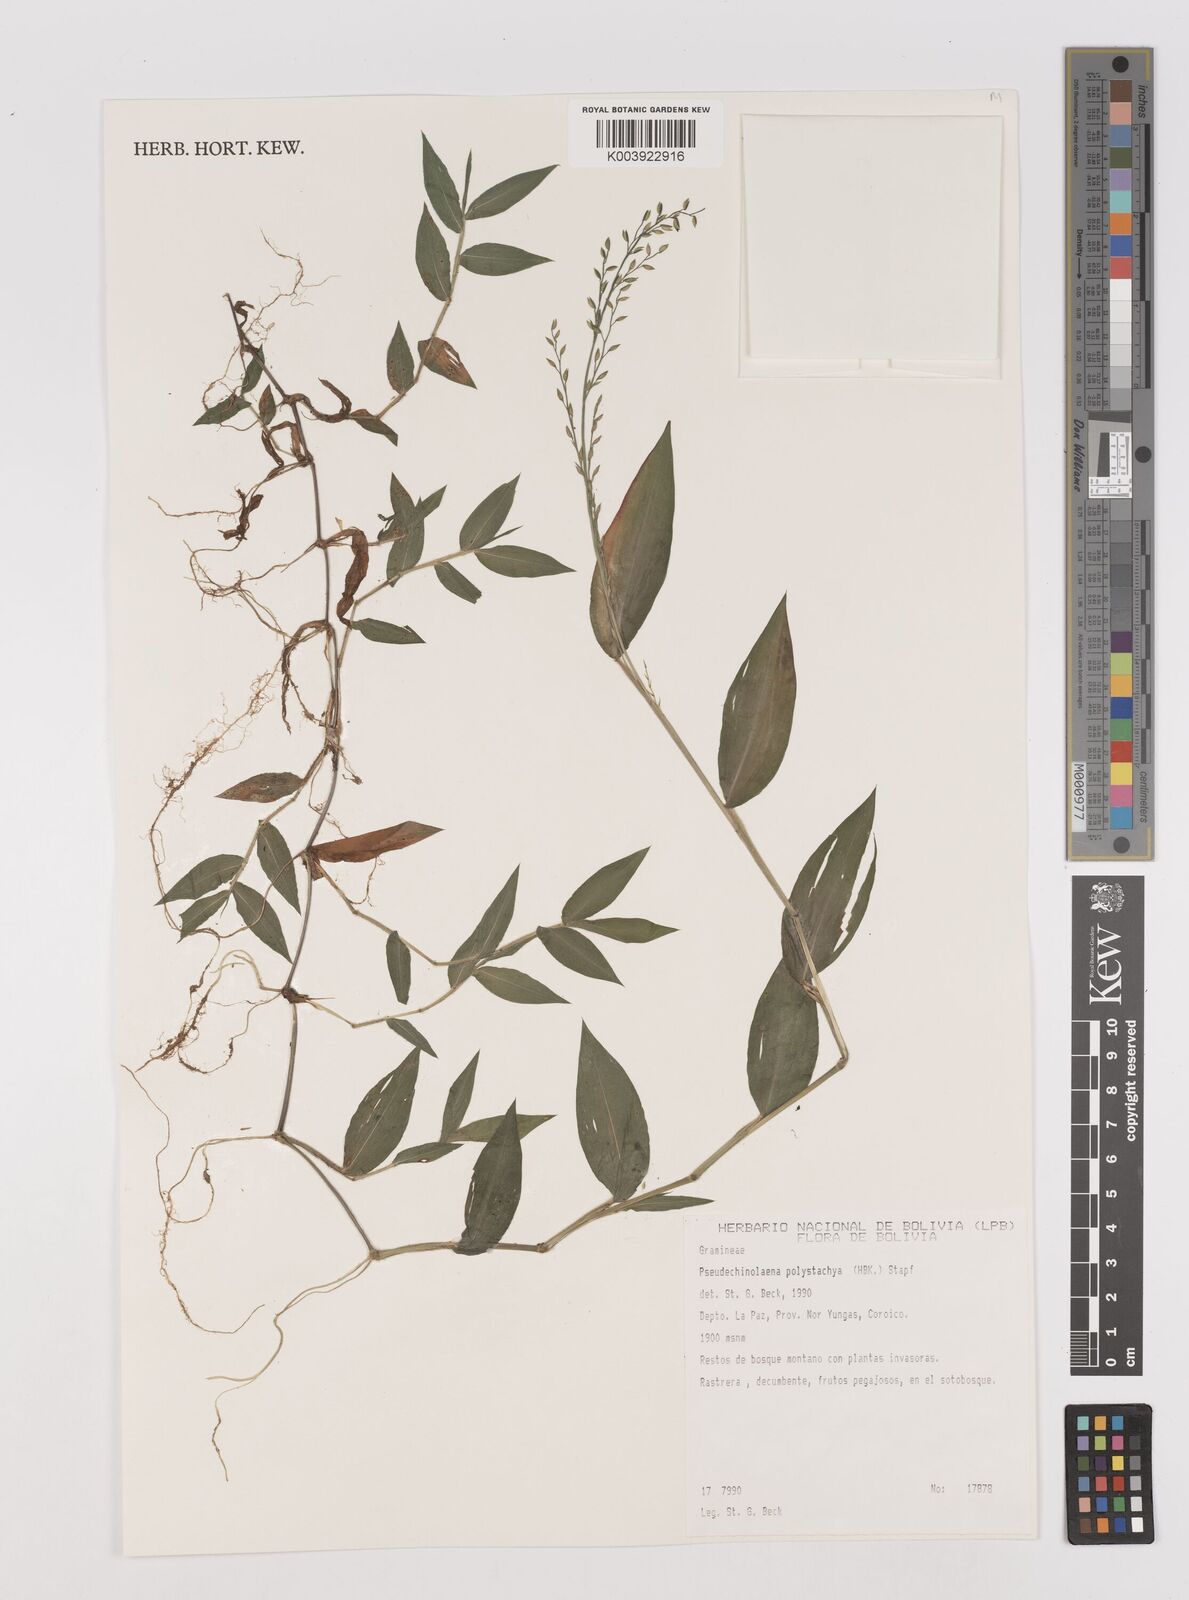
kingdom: Plantae
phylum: Tracheophyta
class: Liliopsida
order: Poales
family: Poaceae
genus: Pseudechinolaena
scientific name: Pseudechinolaena polystachya
